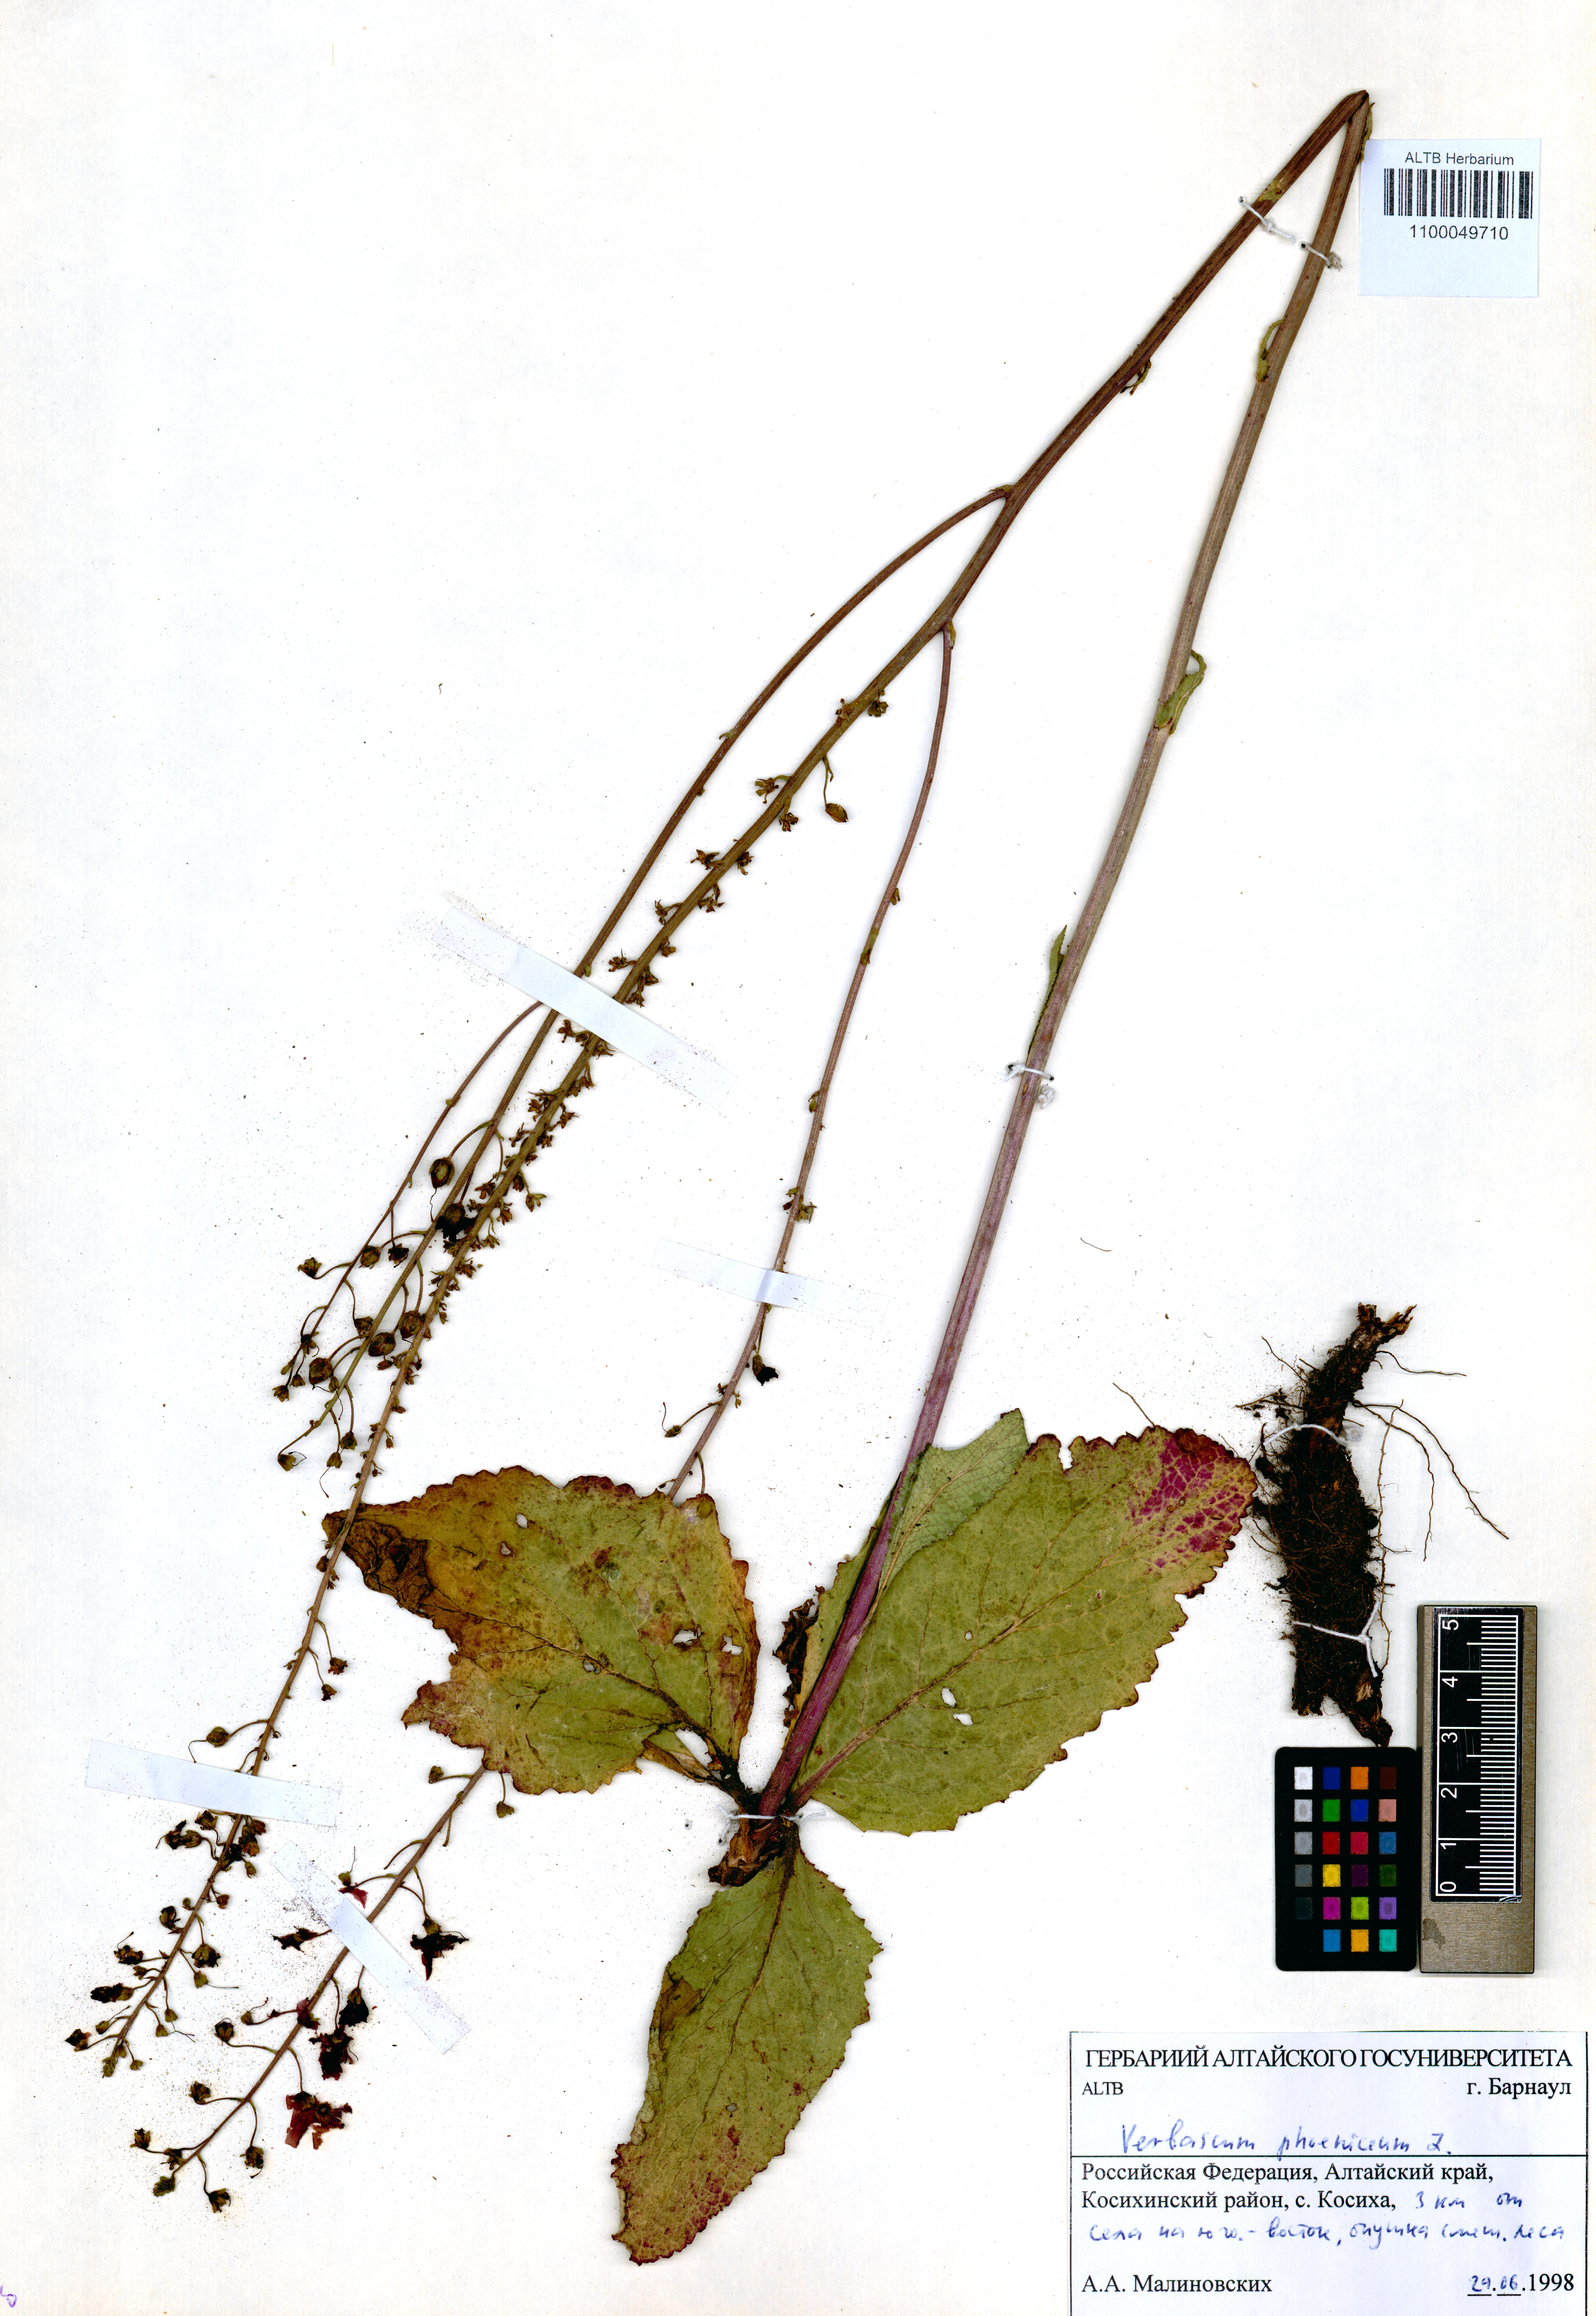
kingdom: Plantae
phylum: Tracheophyta
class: Magnoliopsida
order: Lamiales
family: Scrophulariaceae
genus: Verbascum
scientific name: Verbascum phoeniceum
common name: Purple mullein
